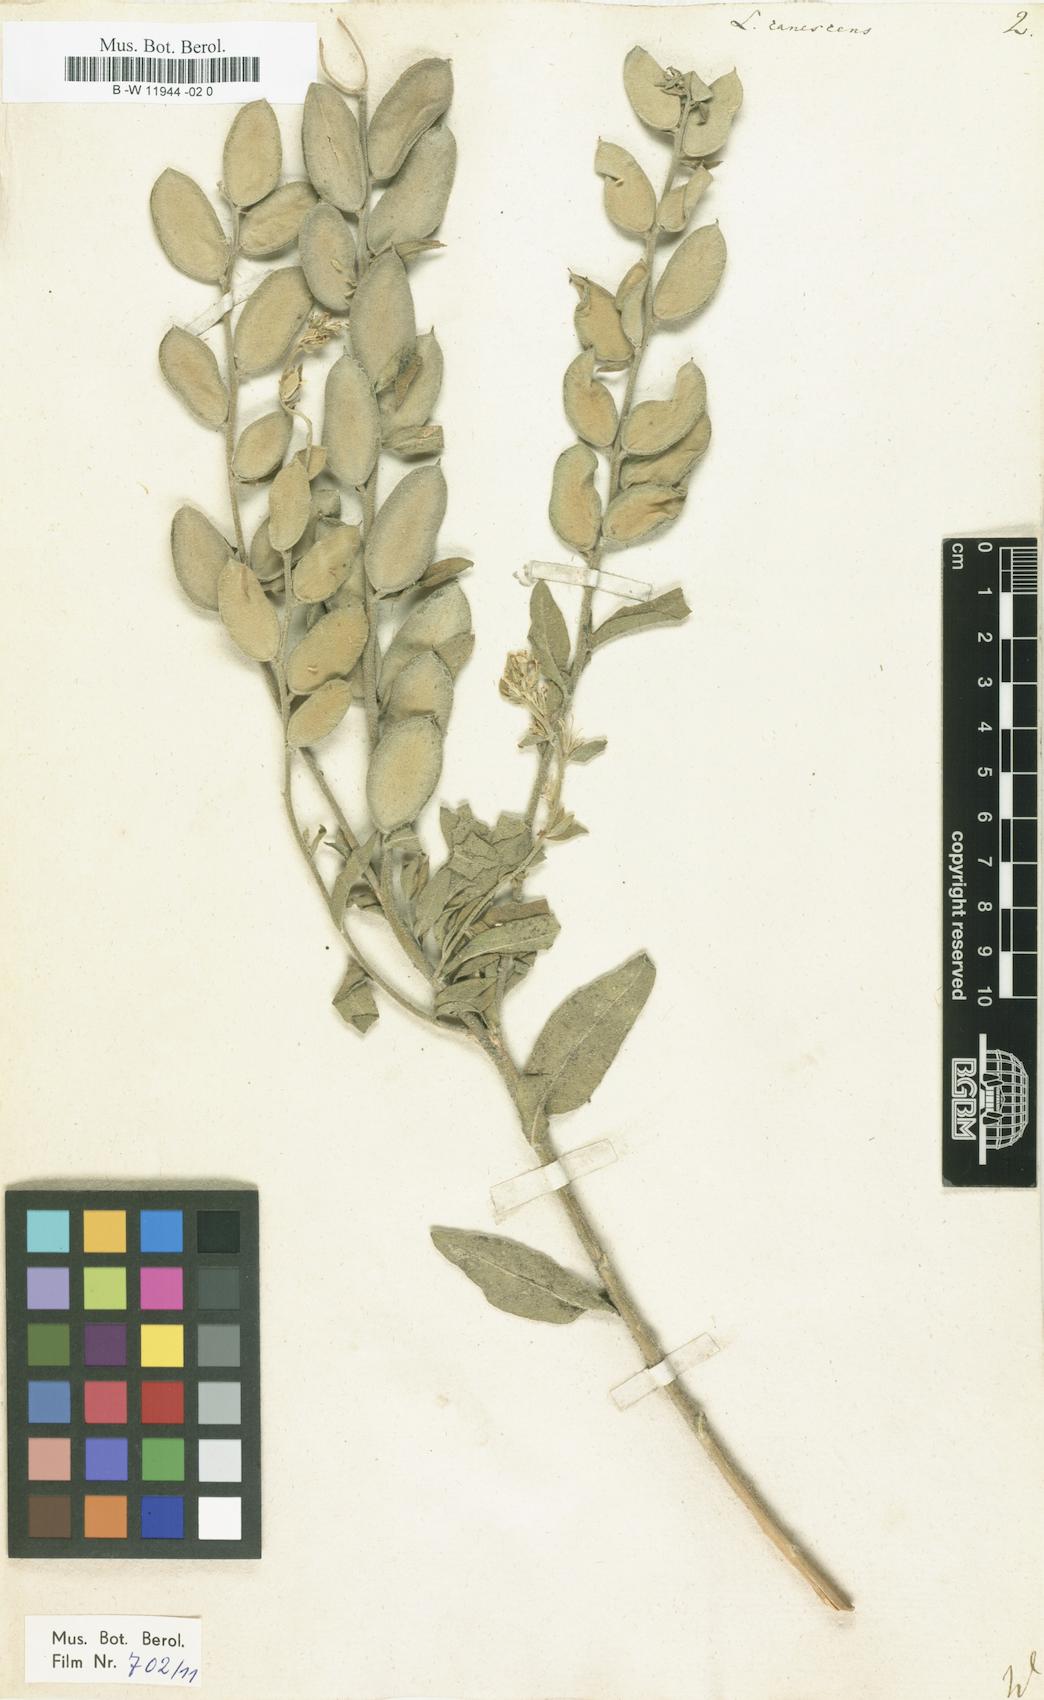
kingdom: Plantae
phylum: Tracheophyta
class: Magnoliopsida
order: Brassicales
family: Brassicaceae
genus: Fibigia
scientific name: Fibigia clypeata
